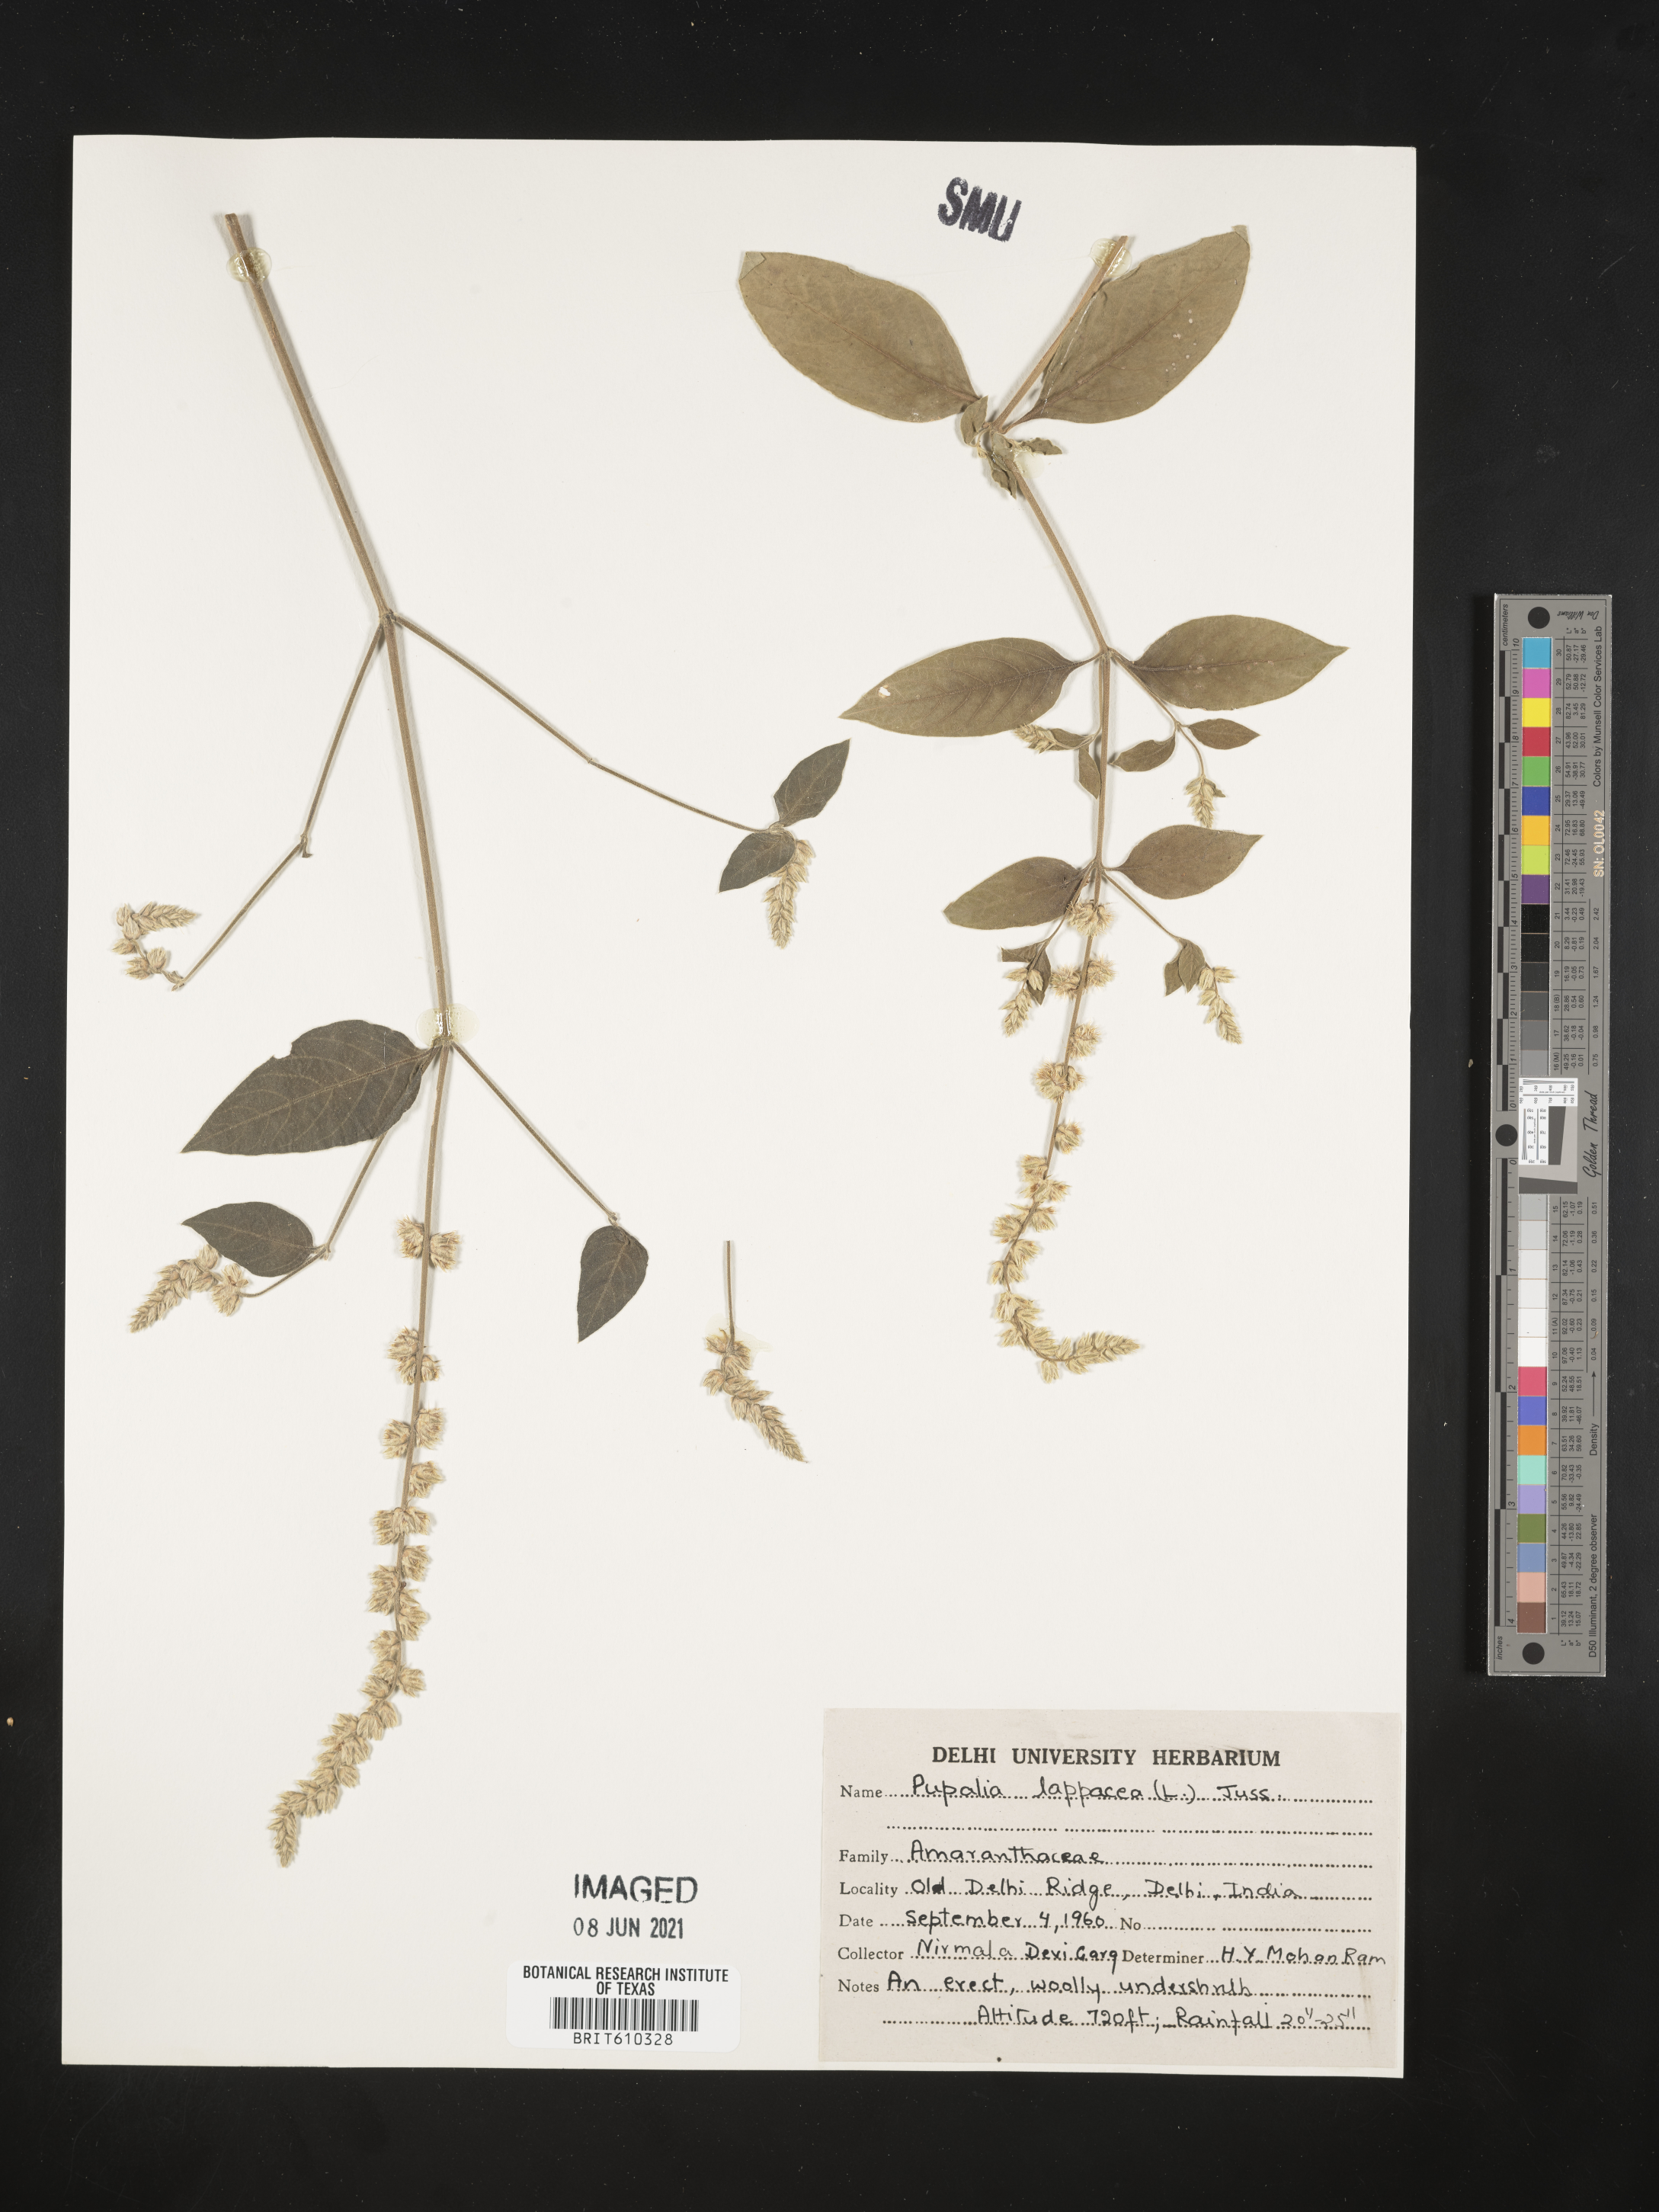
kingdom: Plantae
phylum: Tracheophyta
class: Magnoliopsida
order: Caryophyllales
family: Amaranthaceae
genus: Pupalia
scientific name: Pupalia lappacea
